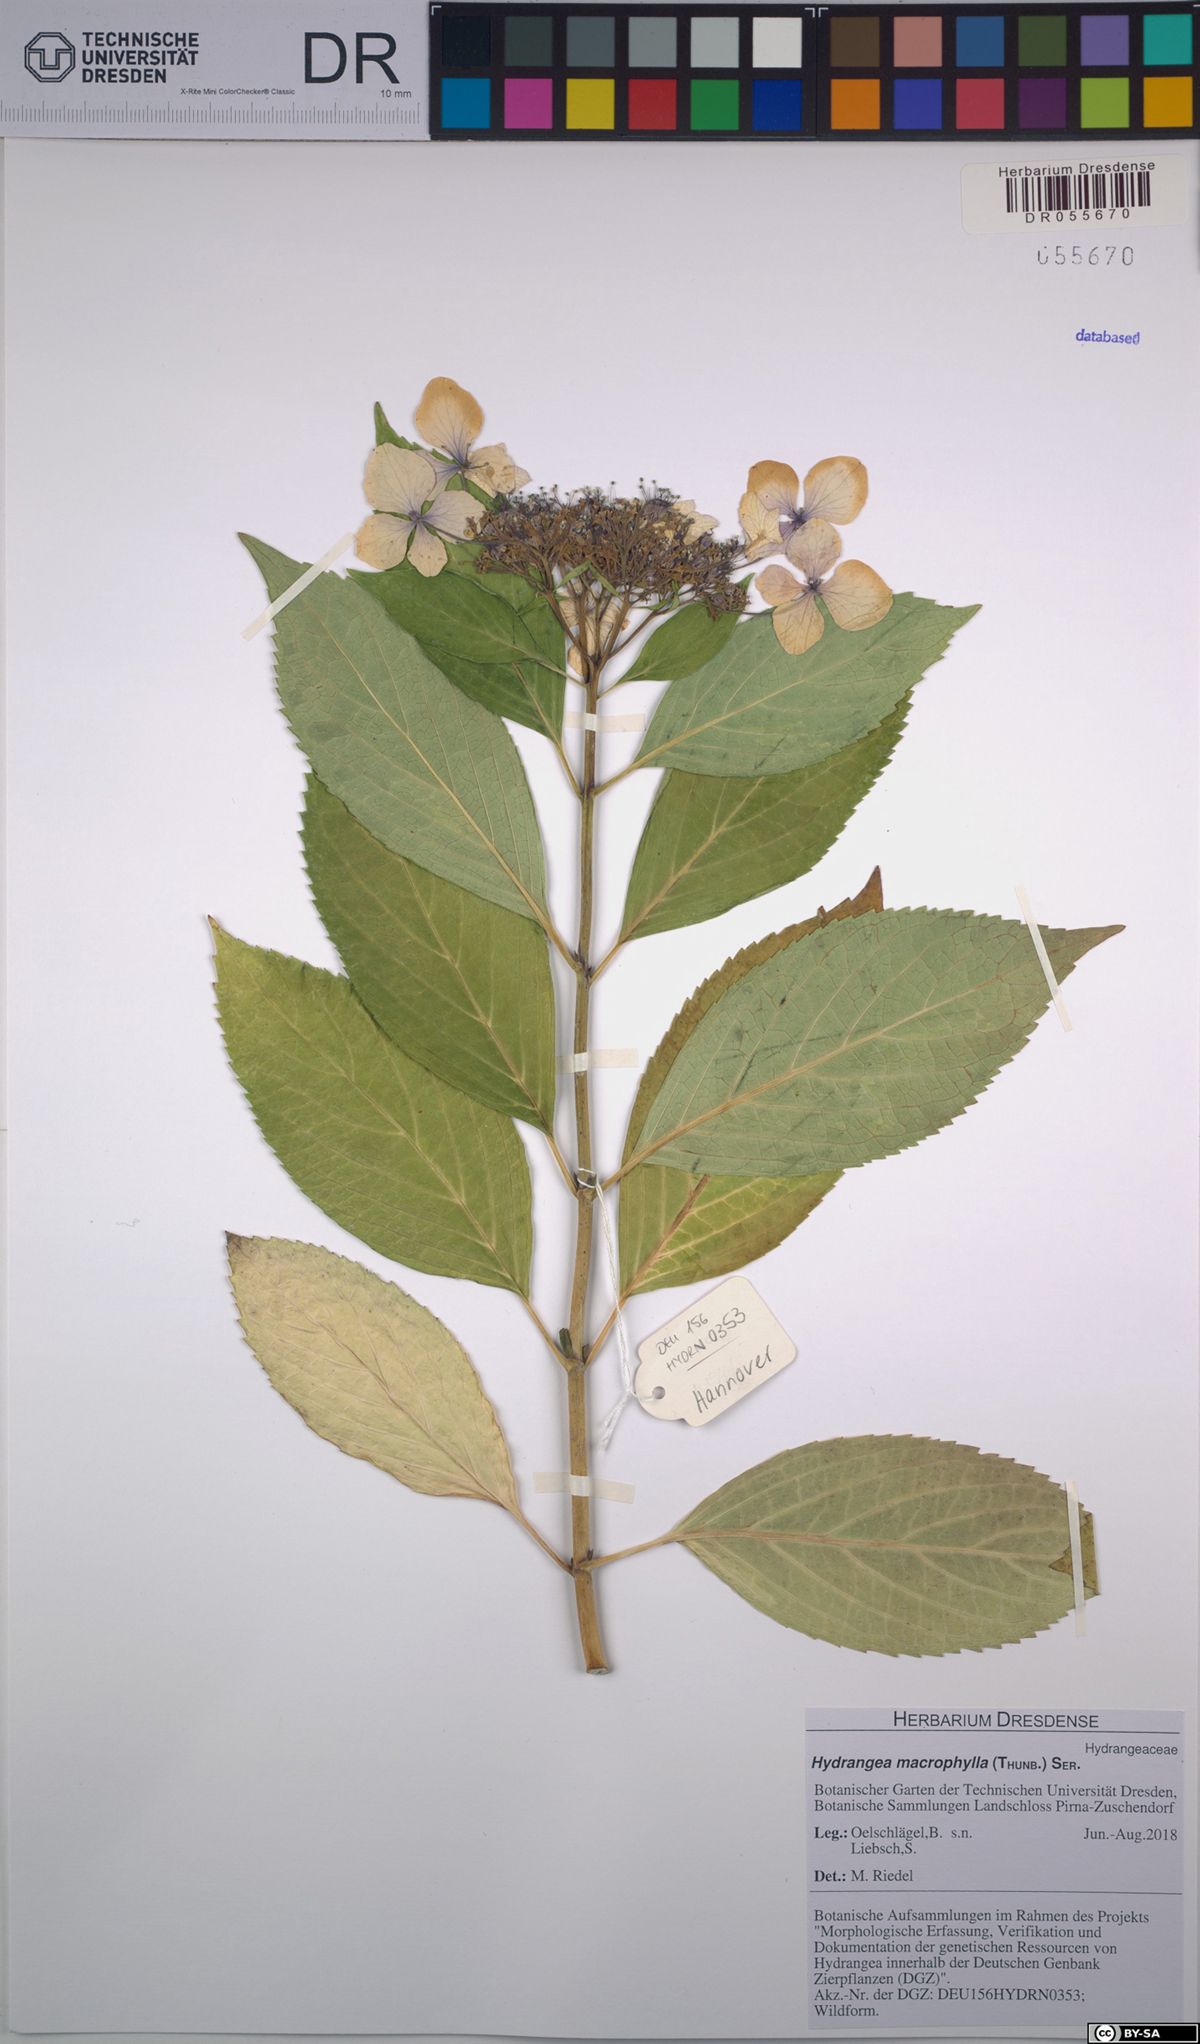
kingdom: Plantae
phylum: Tracheophyta
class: Magnoliopsida
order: Cornales
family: Hydrangeaceae
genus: Hydrangea
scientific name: Hydrangea macrophylla
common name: Hydrangea
